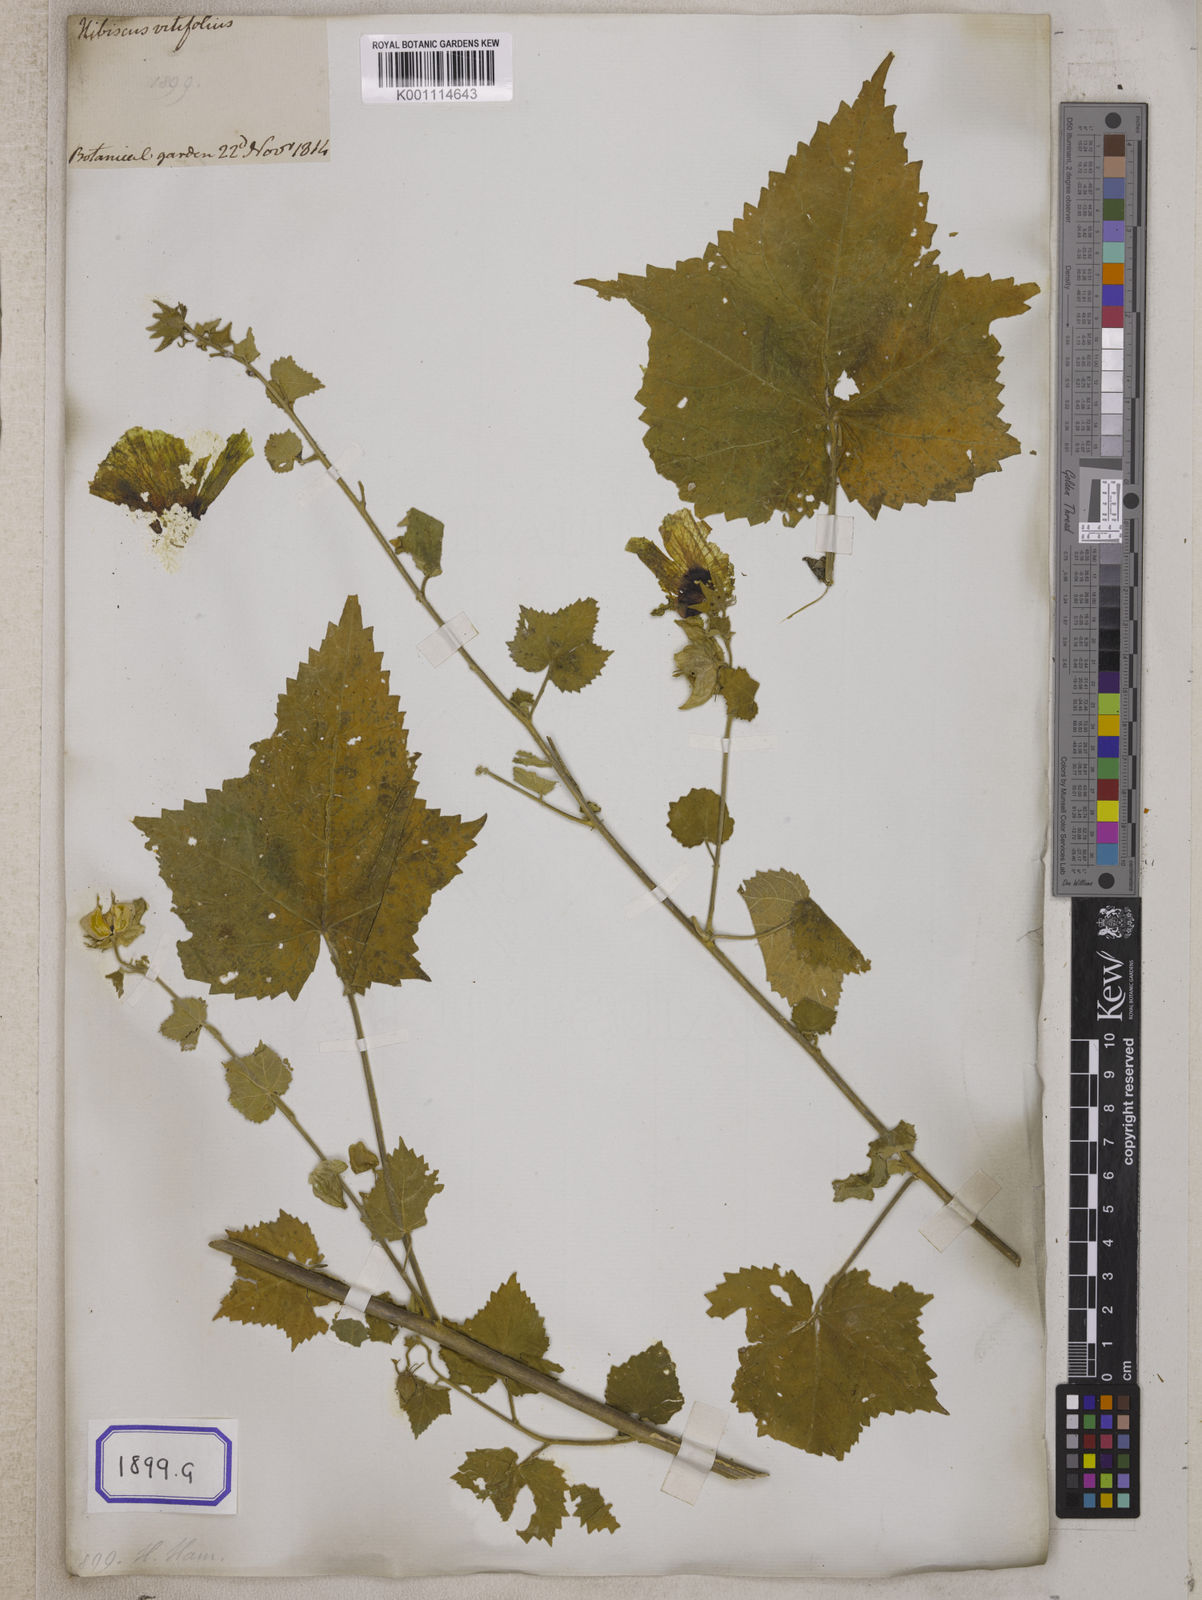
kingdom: Plantae
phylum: Tracheophyta
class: Magnoliopsida
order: Malvales
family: Malvaceae
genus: Hibiscus
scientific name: Hibiscus vitifolius
